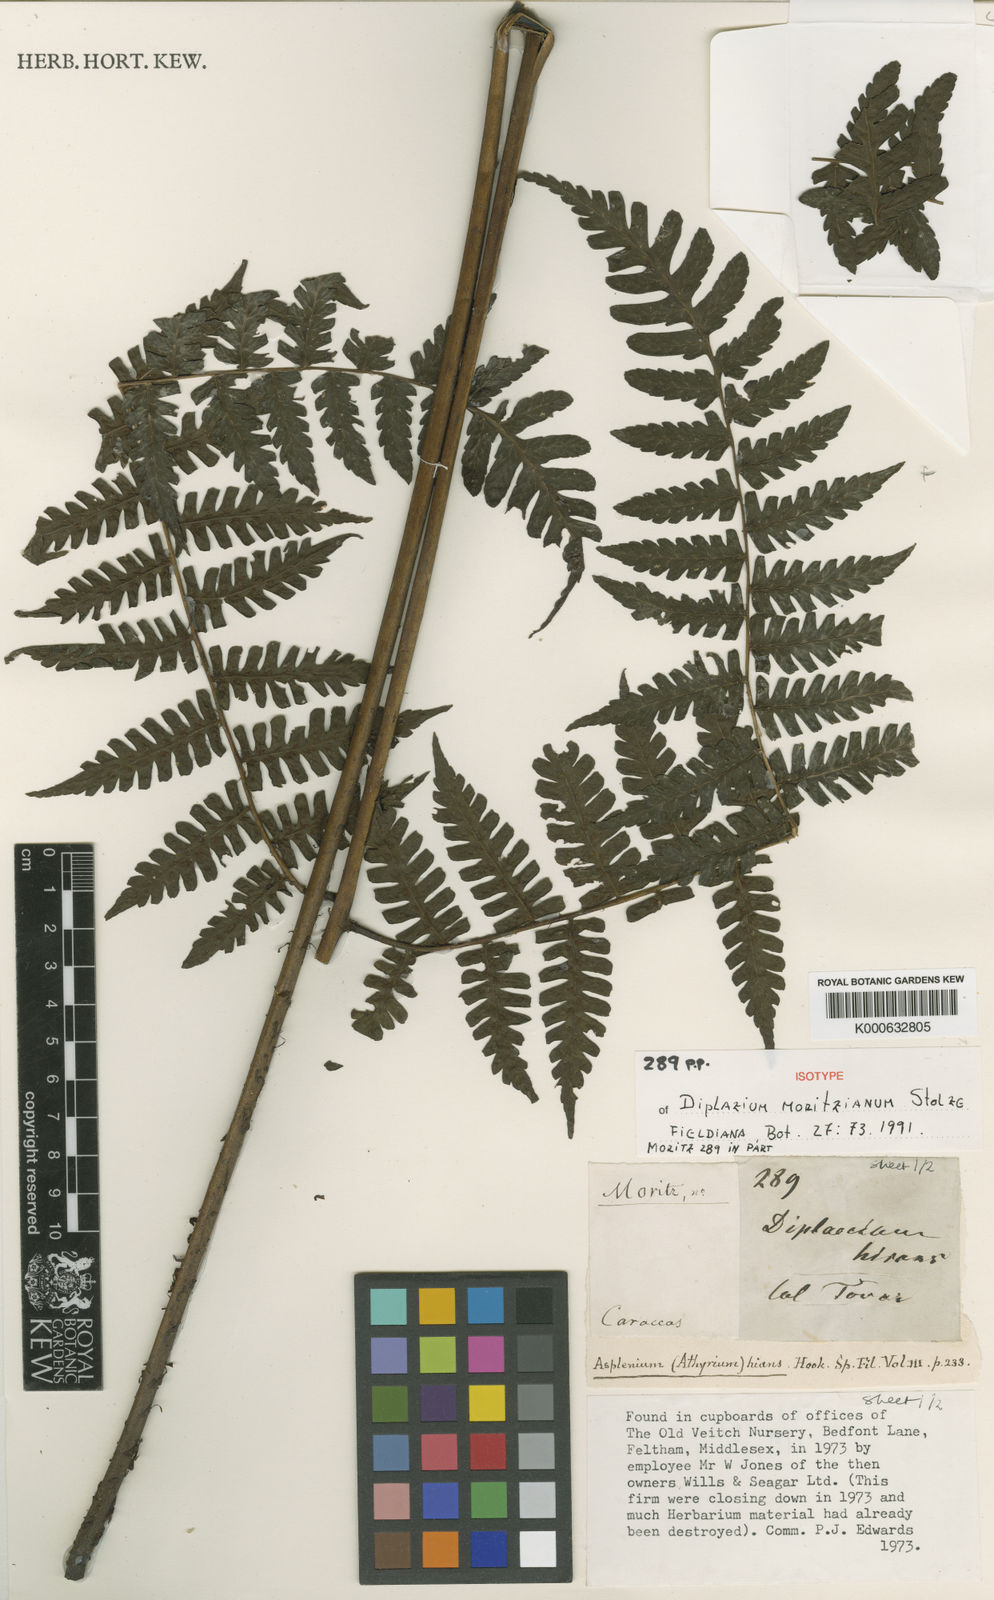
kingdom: Plantae
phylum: Tracheophyta
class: Polypodiopsida
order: Polypodiales
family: Athyriaceae
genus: Diplazium
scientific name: Diplazium moritzianum
